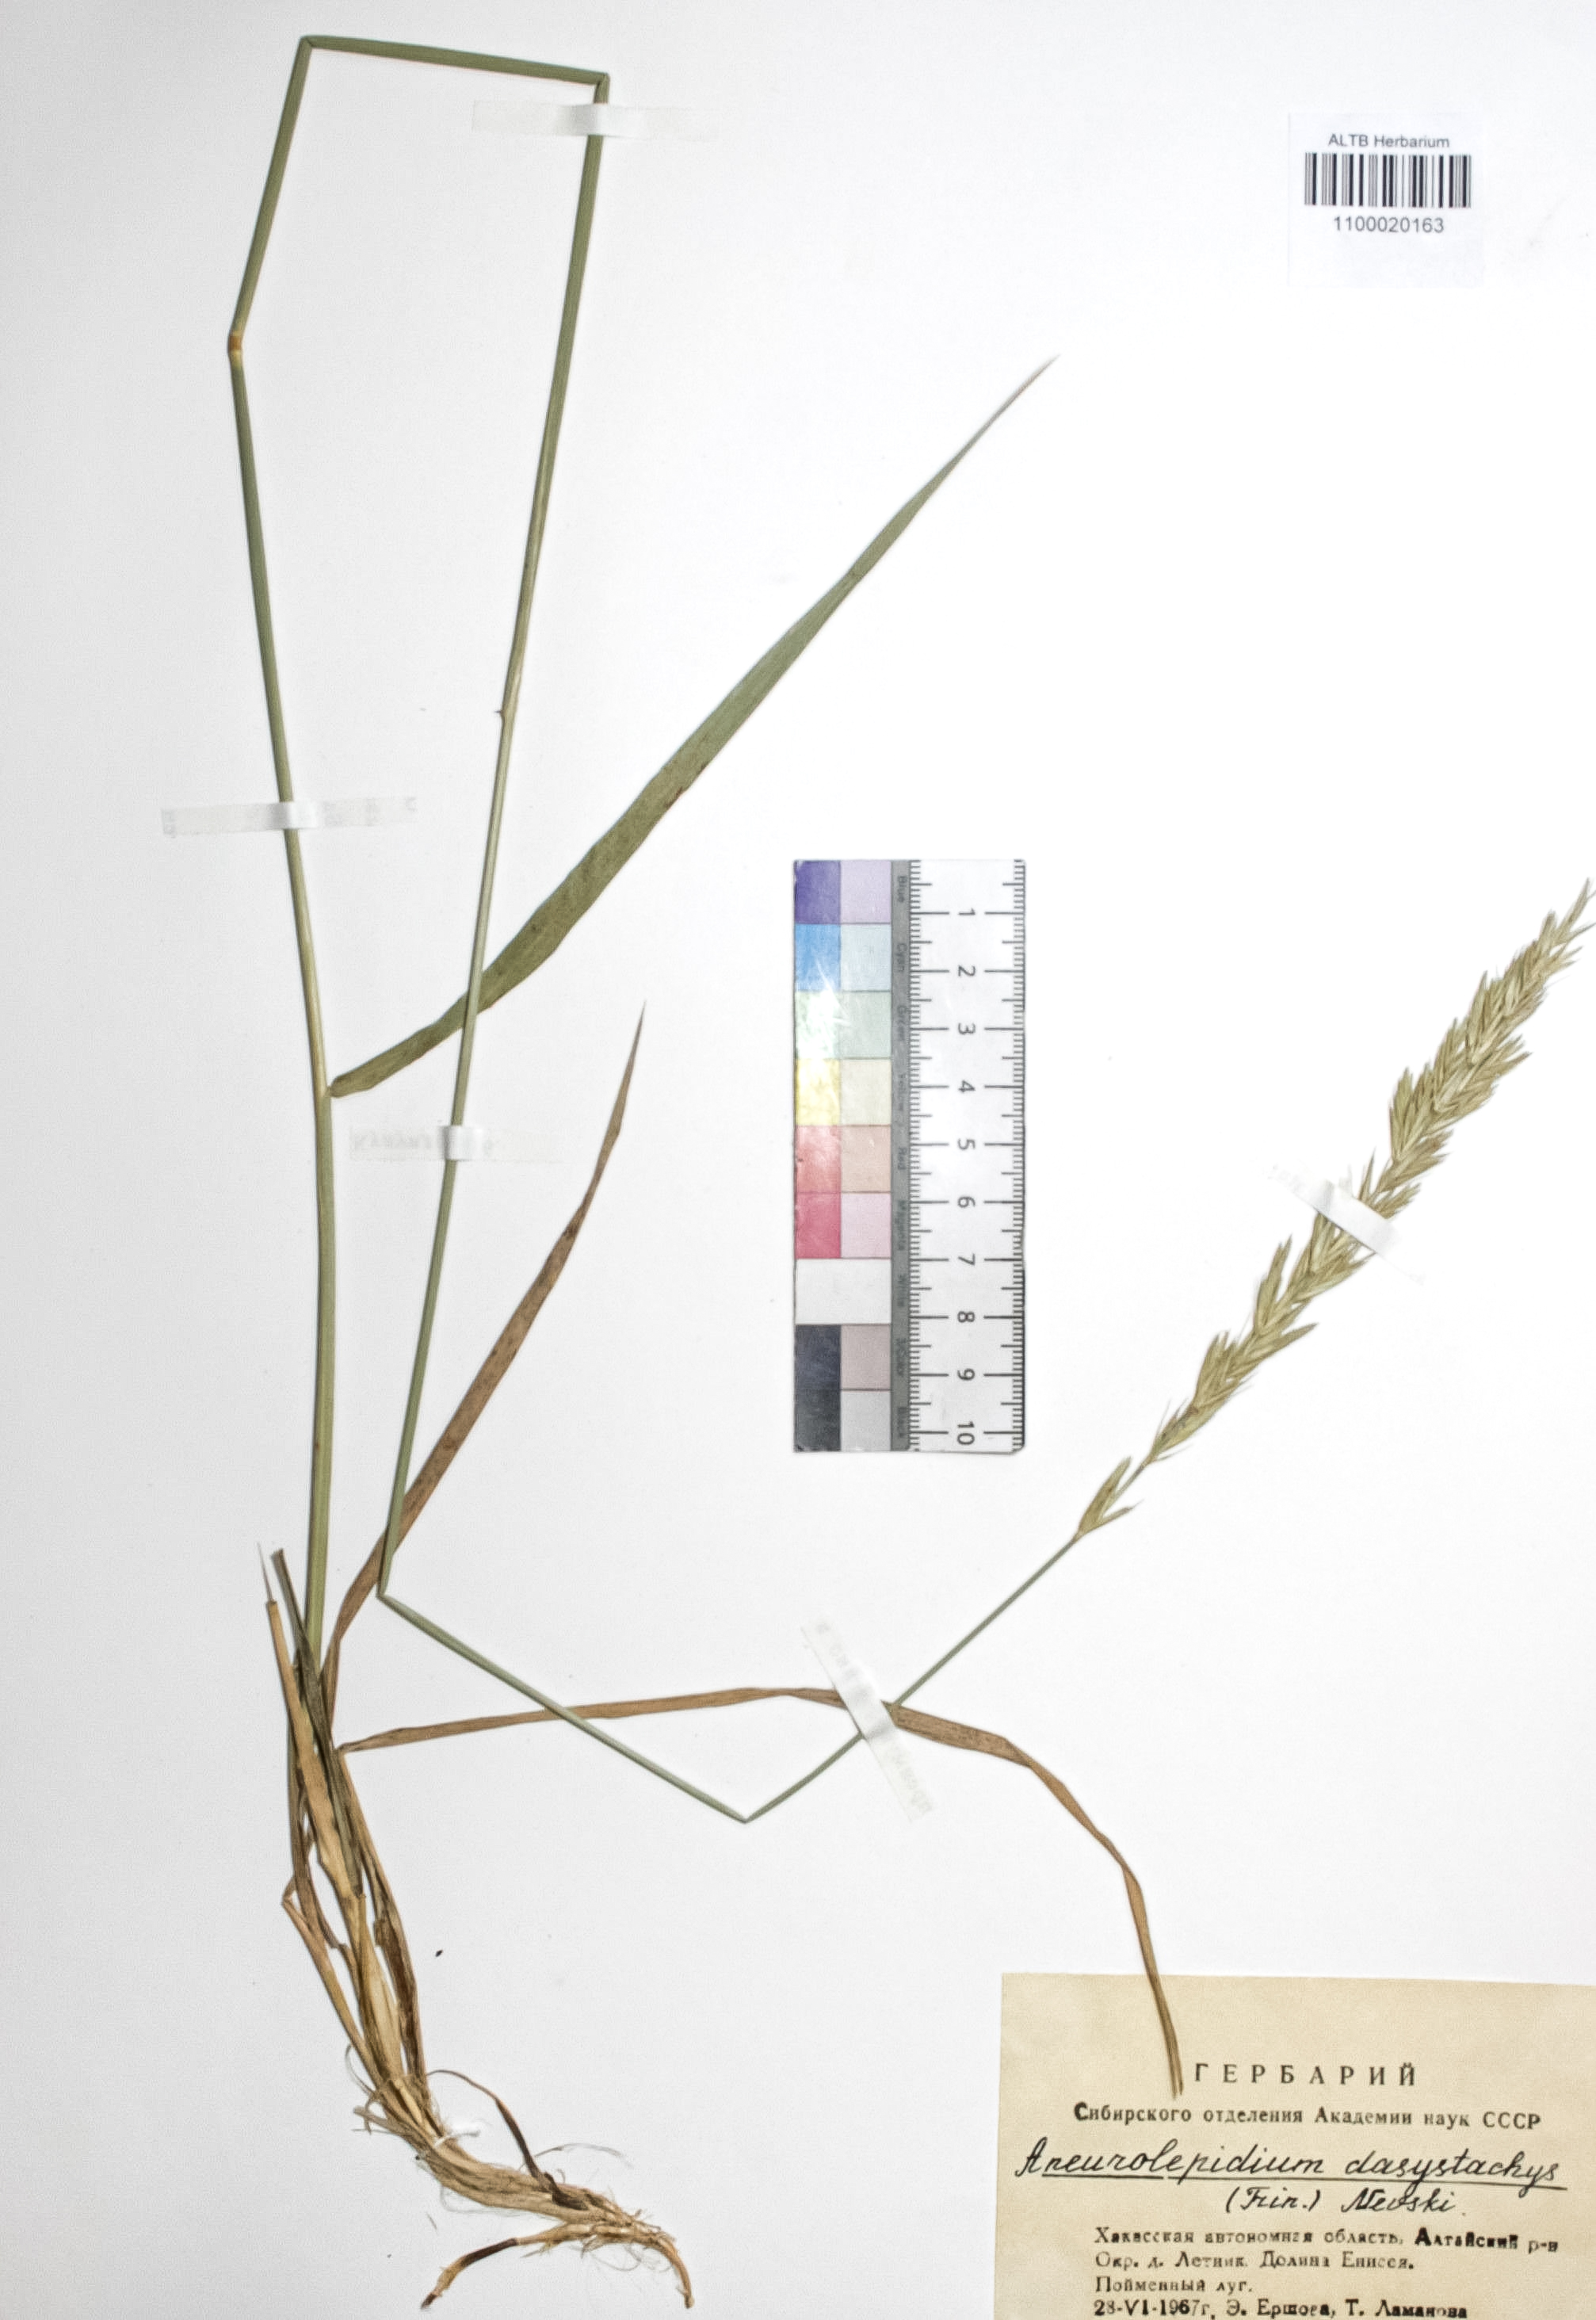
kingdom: Plantae
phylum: Tracheophyta
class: Liliopsida
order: Poales
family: Poaceae
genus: Leymus
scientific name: Leymus secalinus
